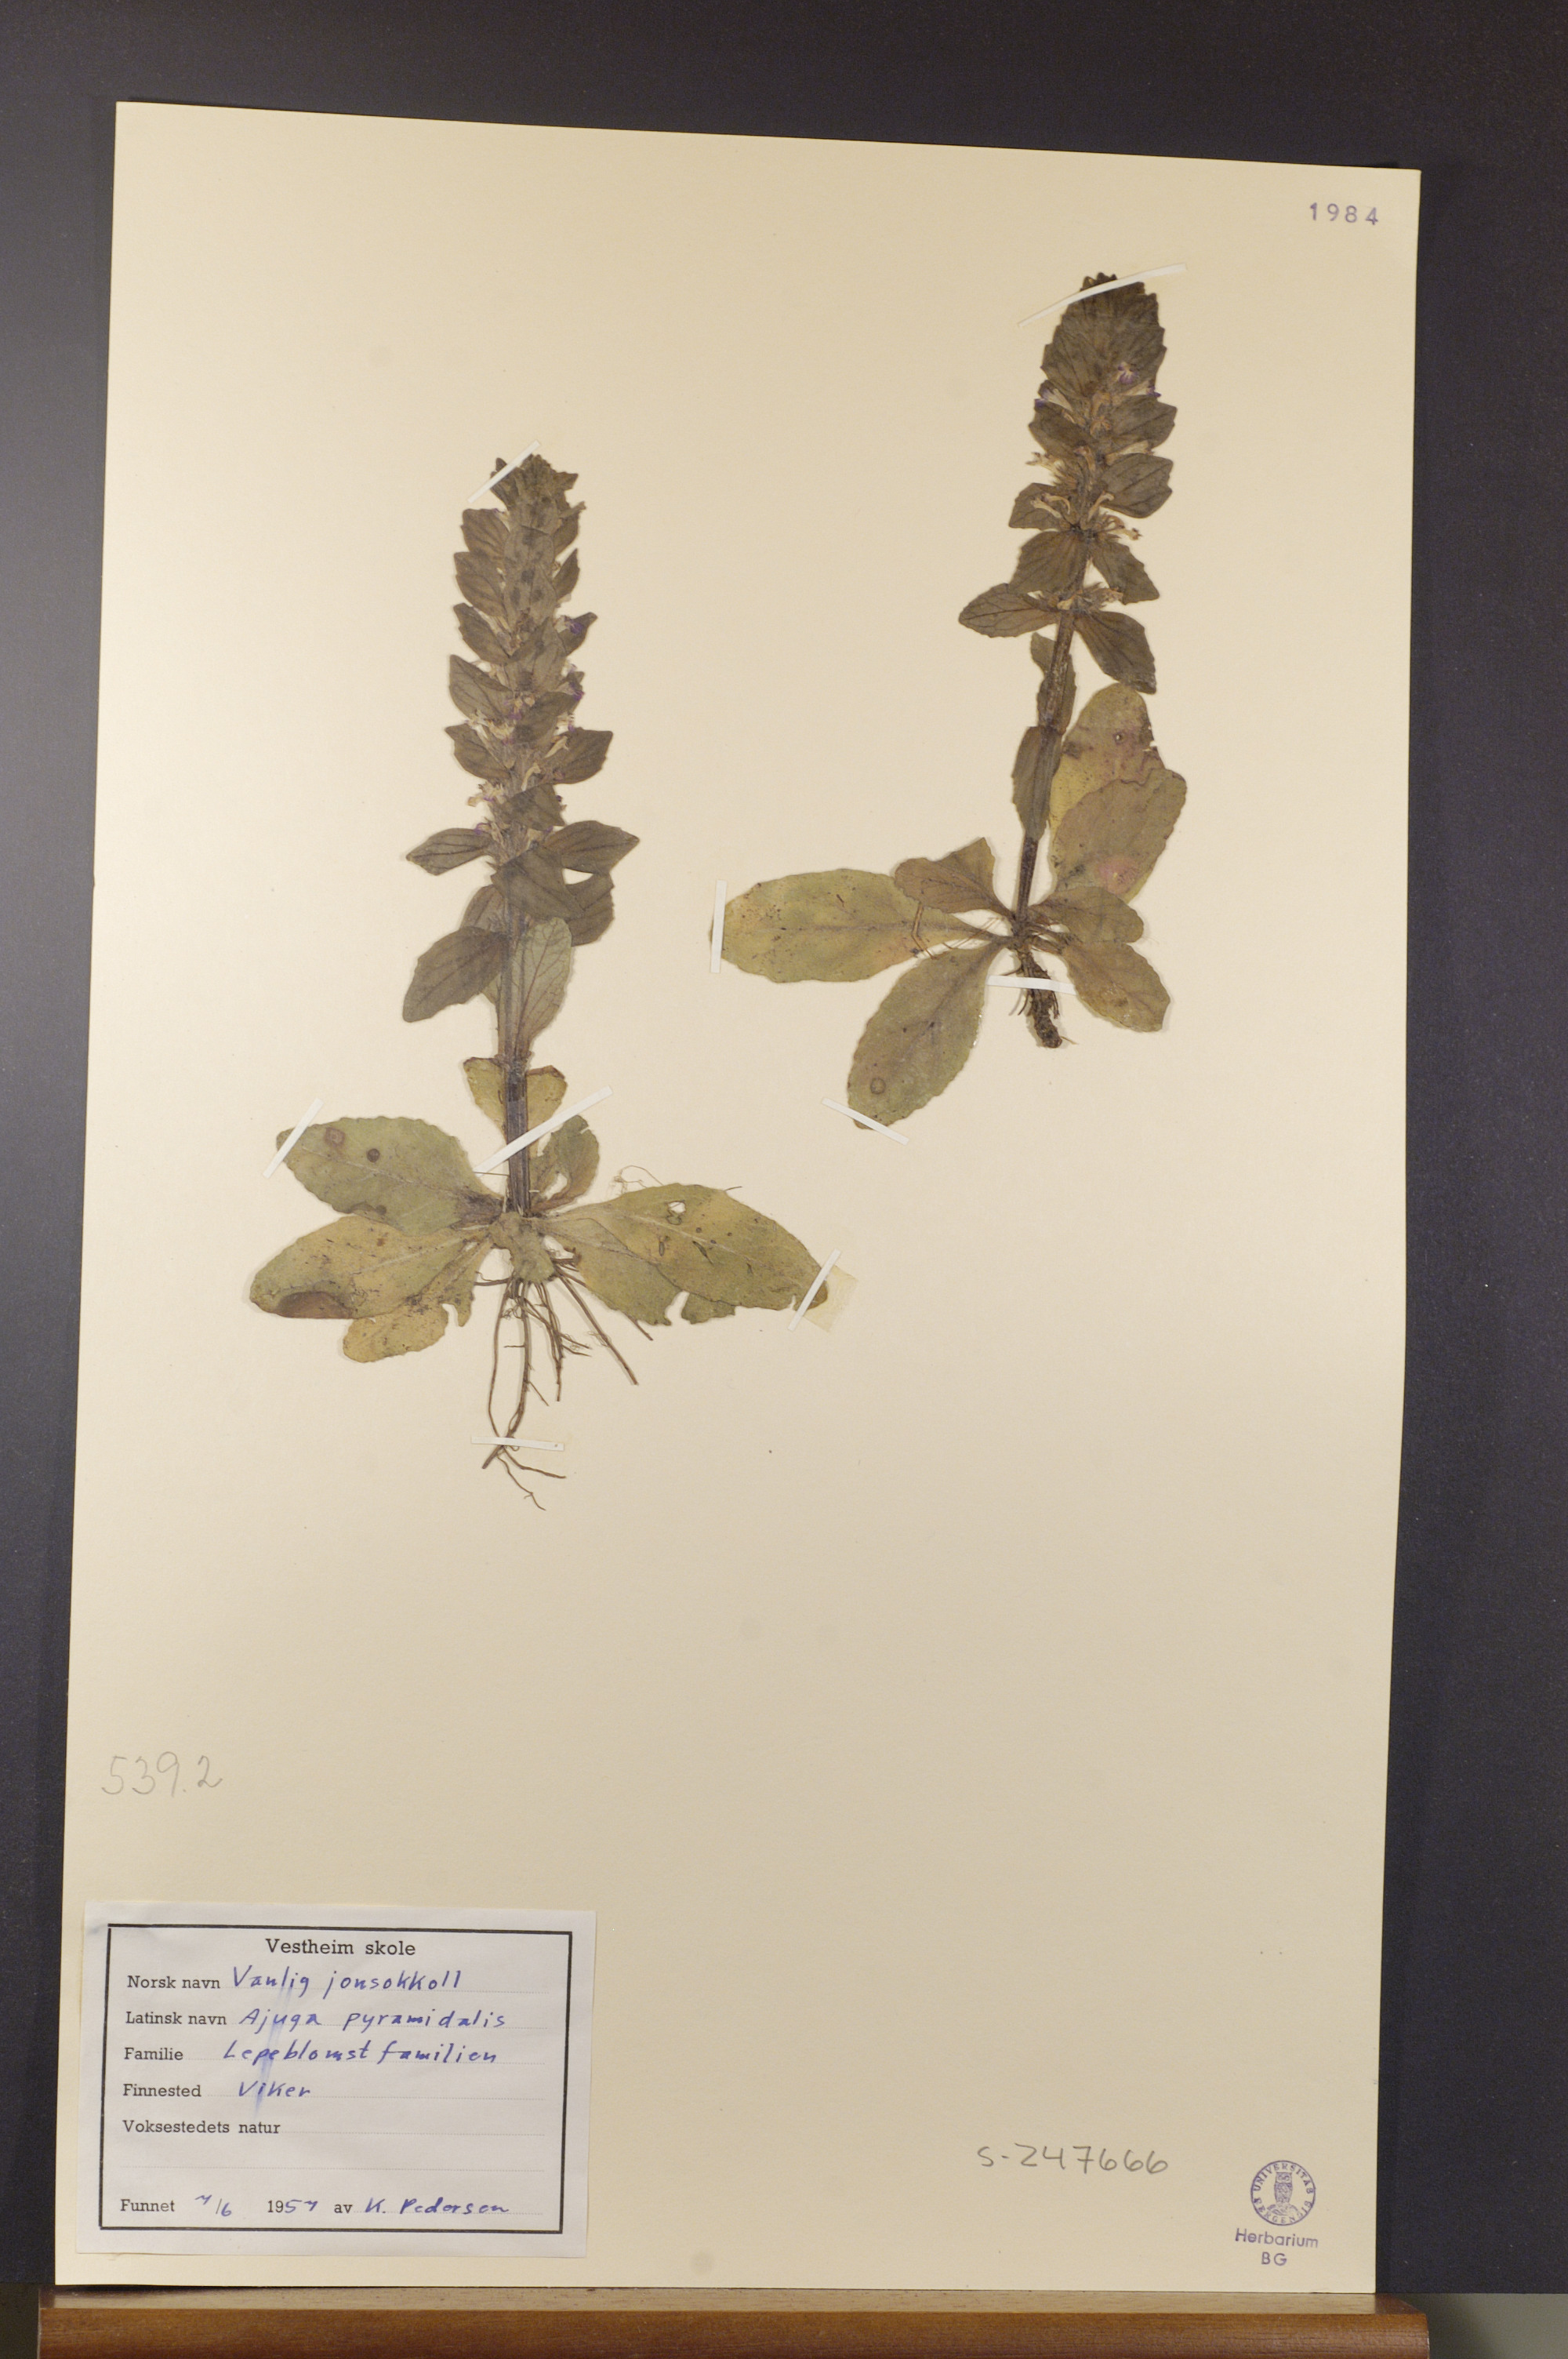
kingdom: Plantae
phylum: Tracheophyta
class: Magnoliopsida
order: Lamiales
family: Lamiaceae
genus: Ajuga
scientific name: Ajuga pyramidalis
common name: Pyramid bugle
